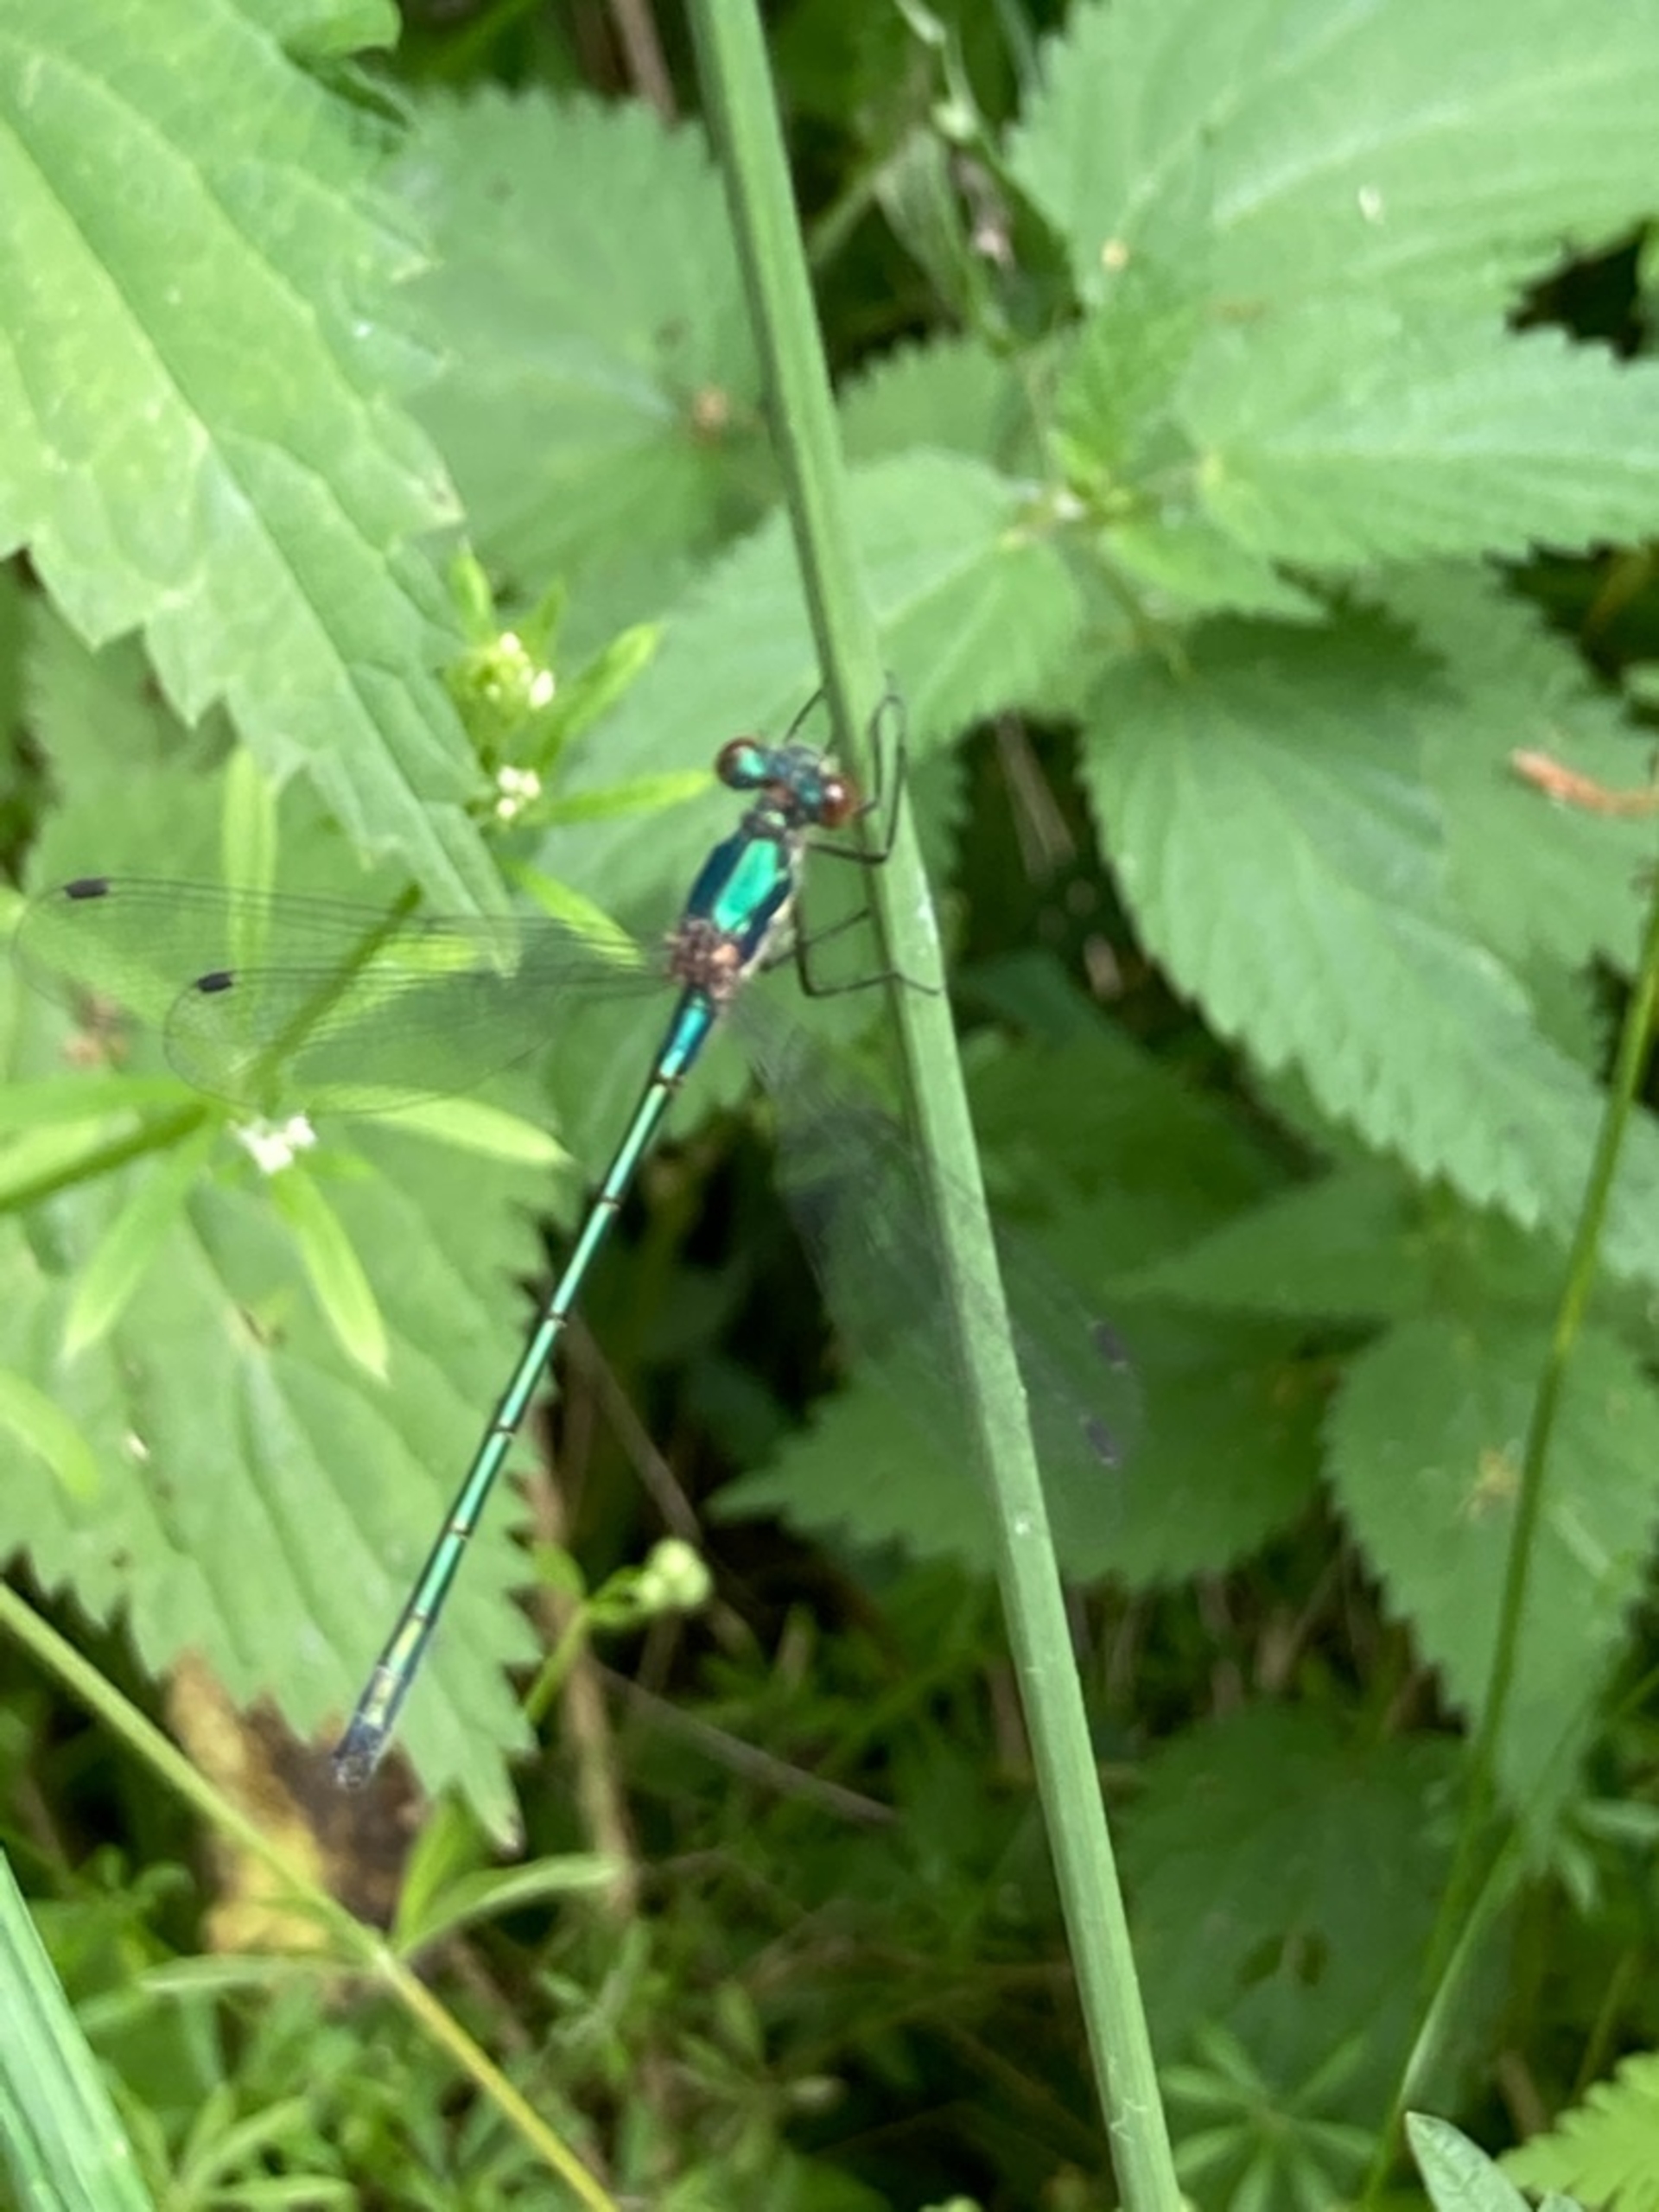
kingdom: Animalia
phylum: Arthropoda
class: Insecta
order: Odonata
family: Lestidae
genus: Lestes
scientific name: Lestes dryas
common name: Sortmærket kobbervandnymfe
